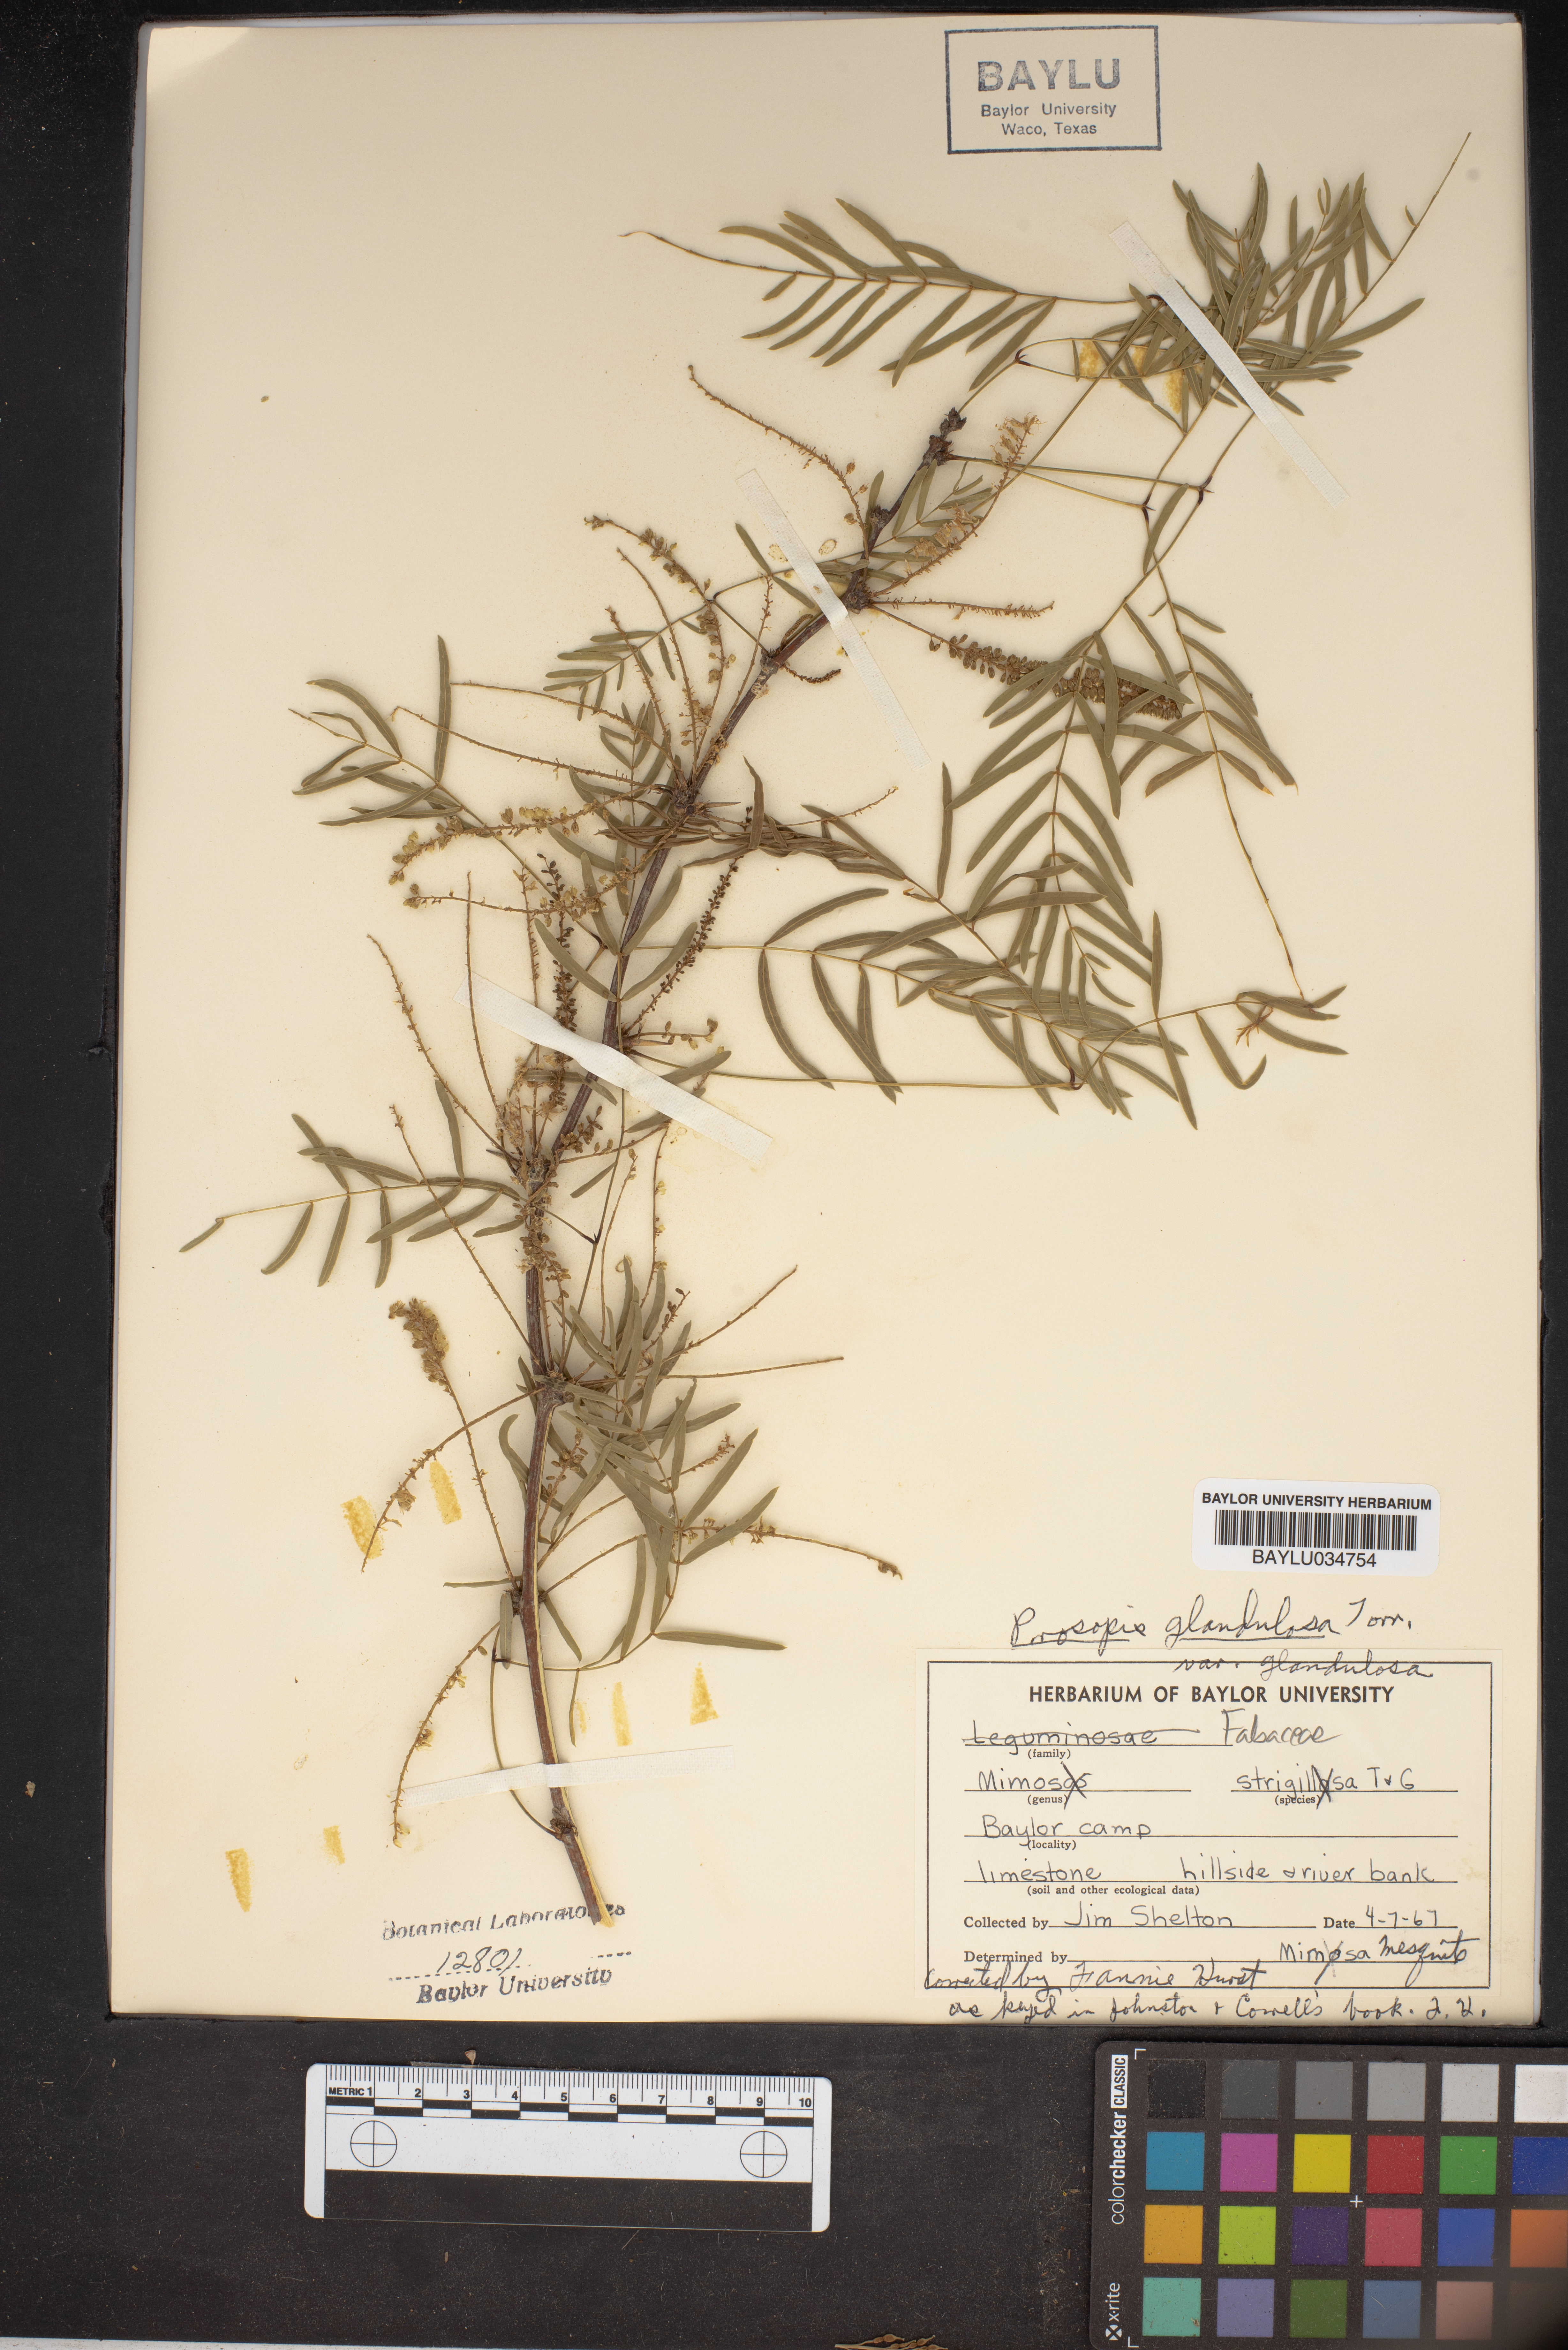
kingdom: Plantae
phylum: Tracheophyta
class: Magnoliopsida
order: Fabales
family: Fabaceae
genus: Prosopis
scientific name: Prosopis glandulosa
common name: Honey mesquite
